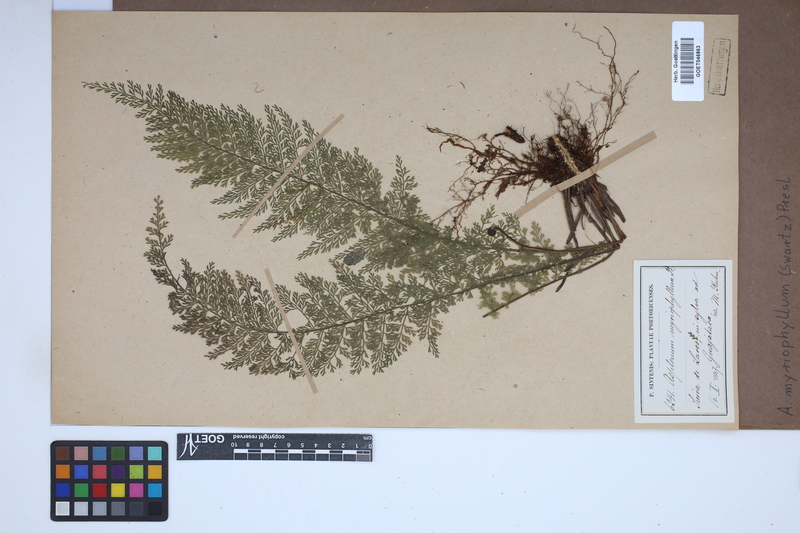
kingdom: Plantae
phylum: Tracheophyta
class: Polypodiopsida
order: Polypodiales
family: Aspleniaceae
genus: Asplenium
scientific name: Asplenium myriophyllum
